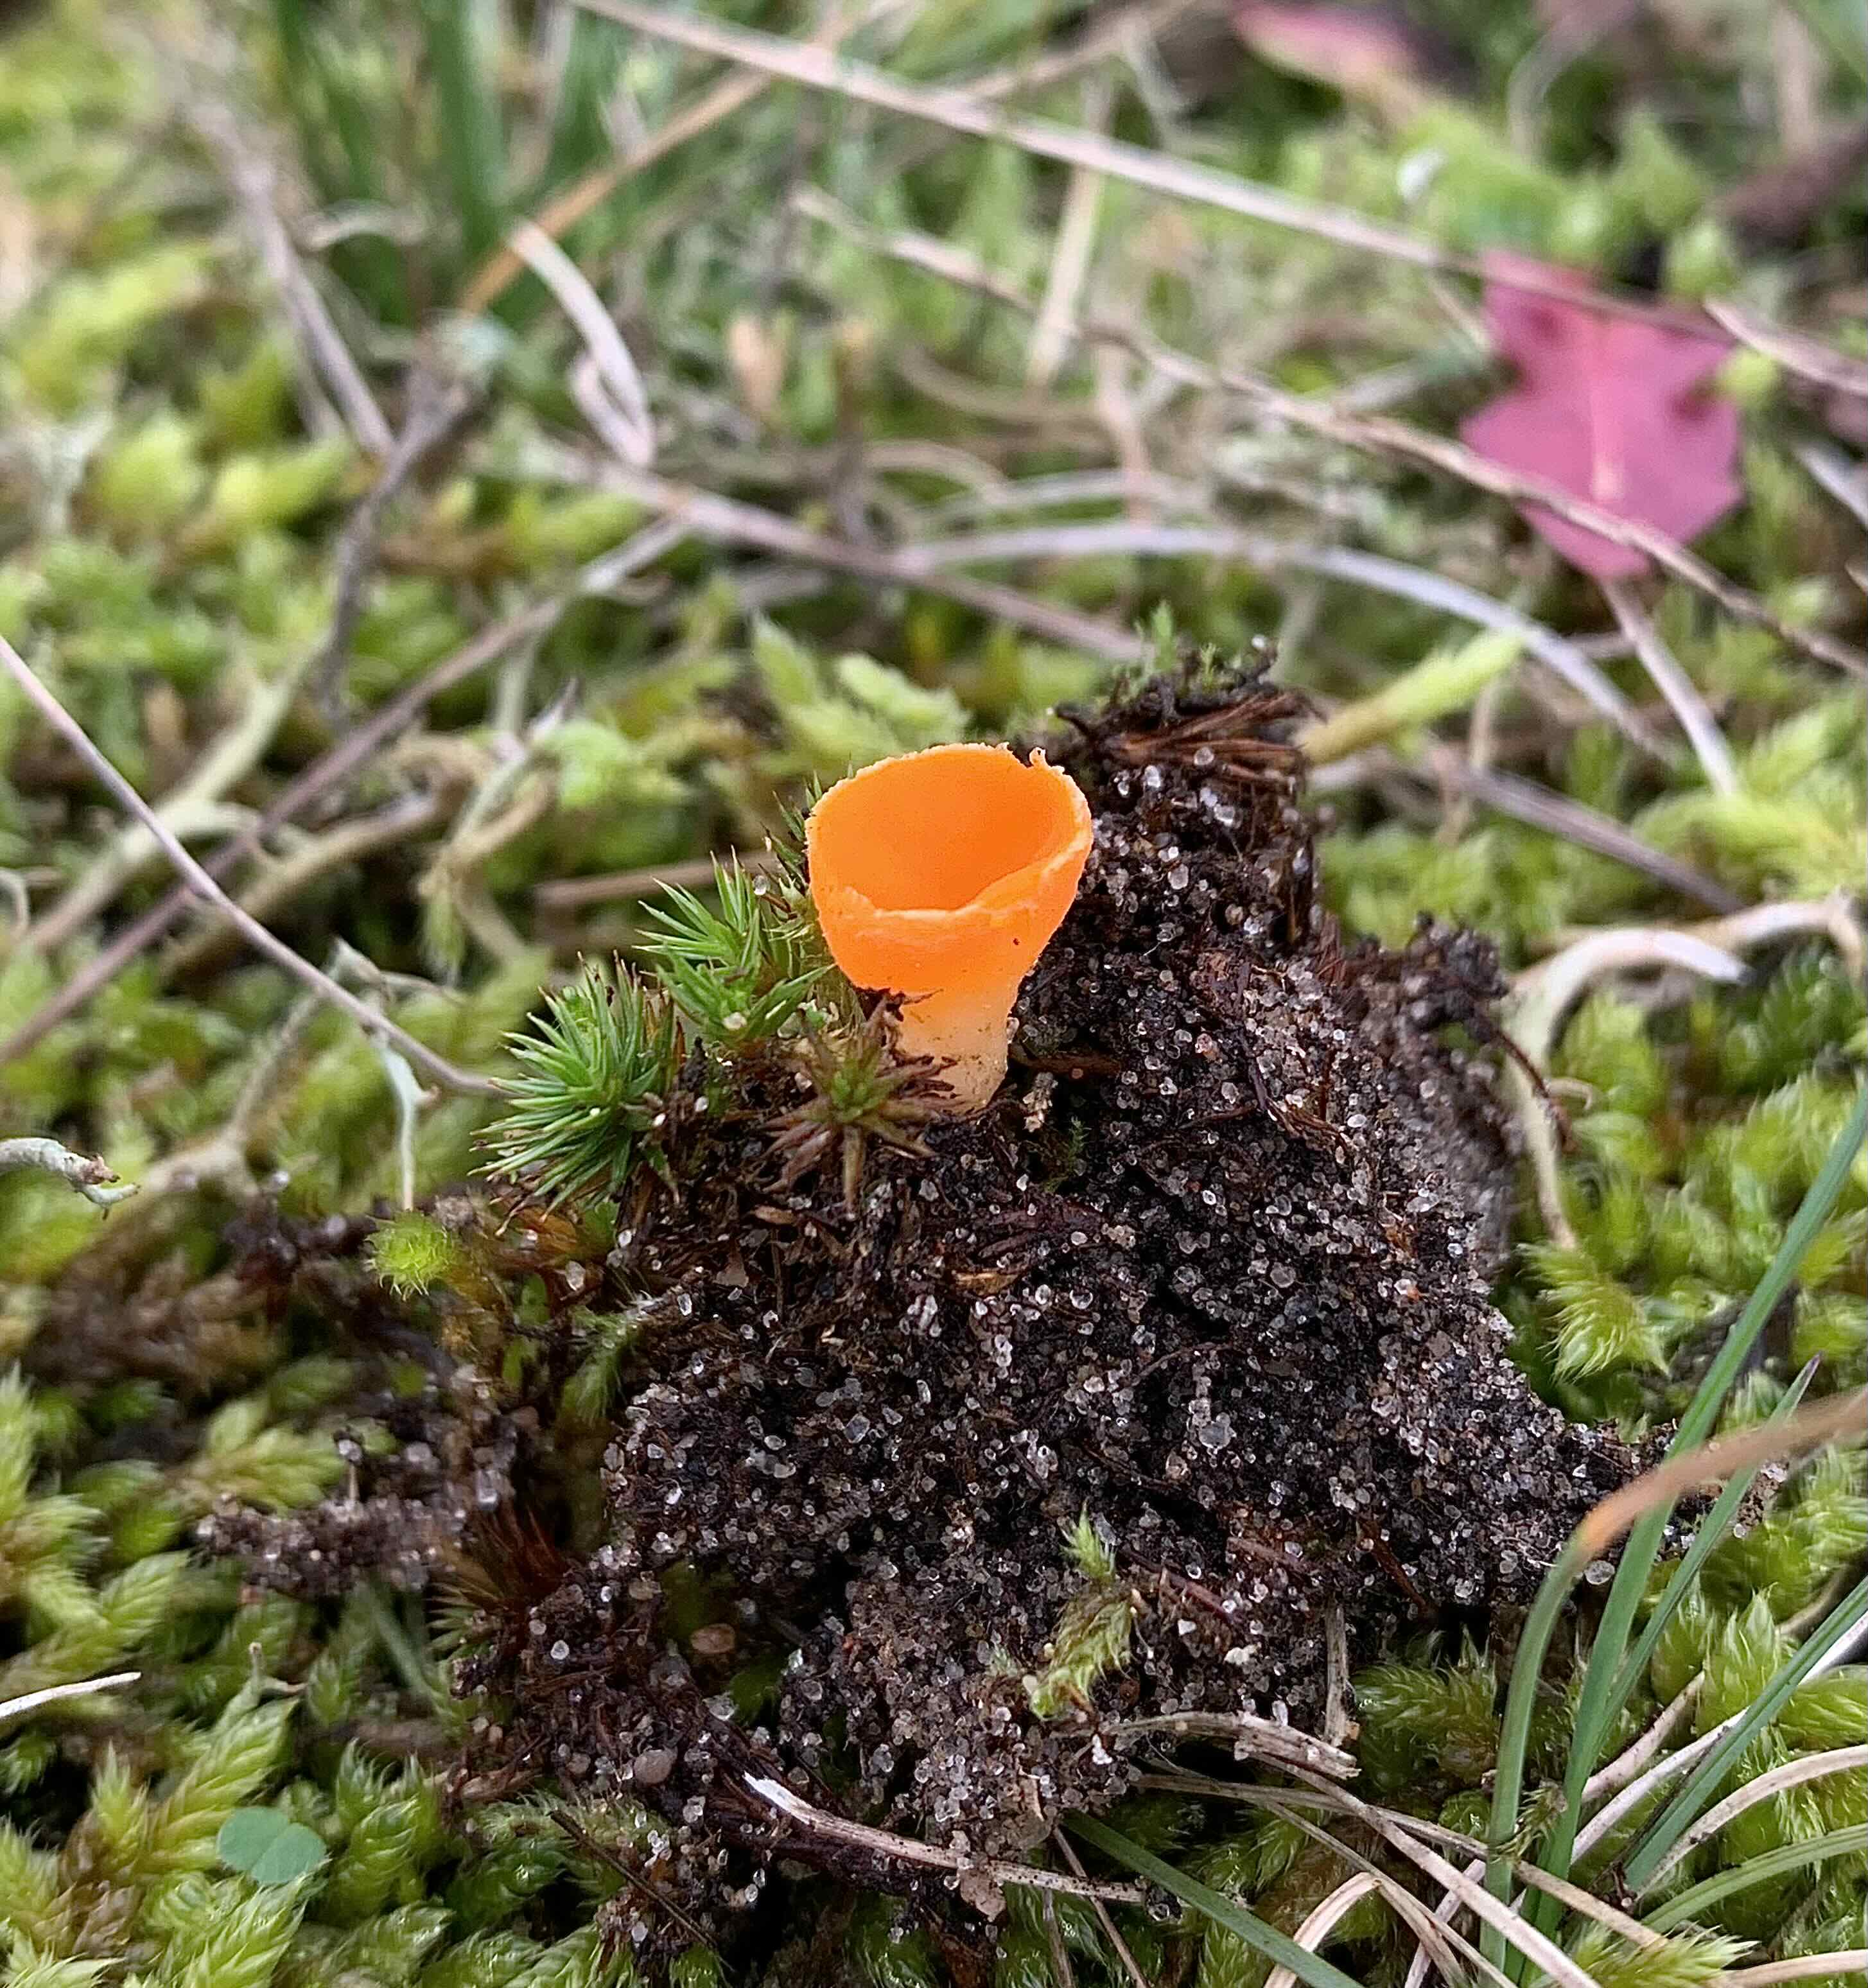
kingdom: Fungi
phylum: Ascomycota
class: Pezizomycetes
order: Pezizales
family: Pyronemataceae
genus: Neottiella
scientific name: Neottiella
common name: mosbæger
